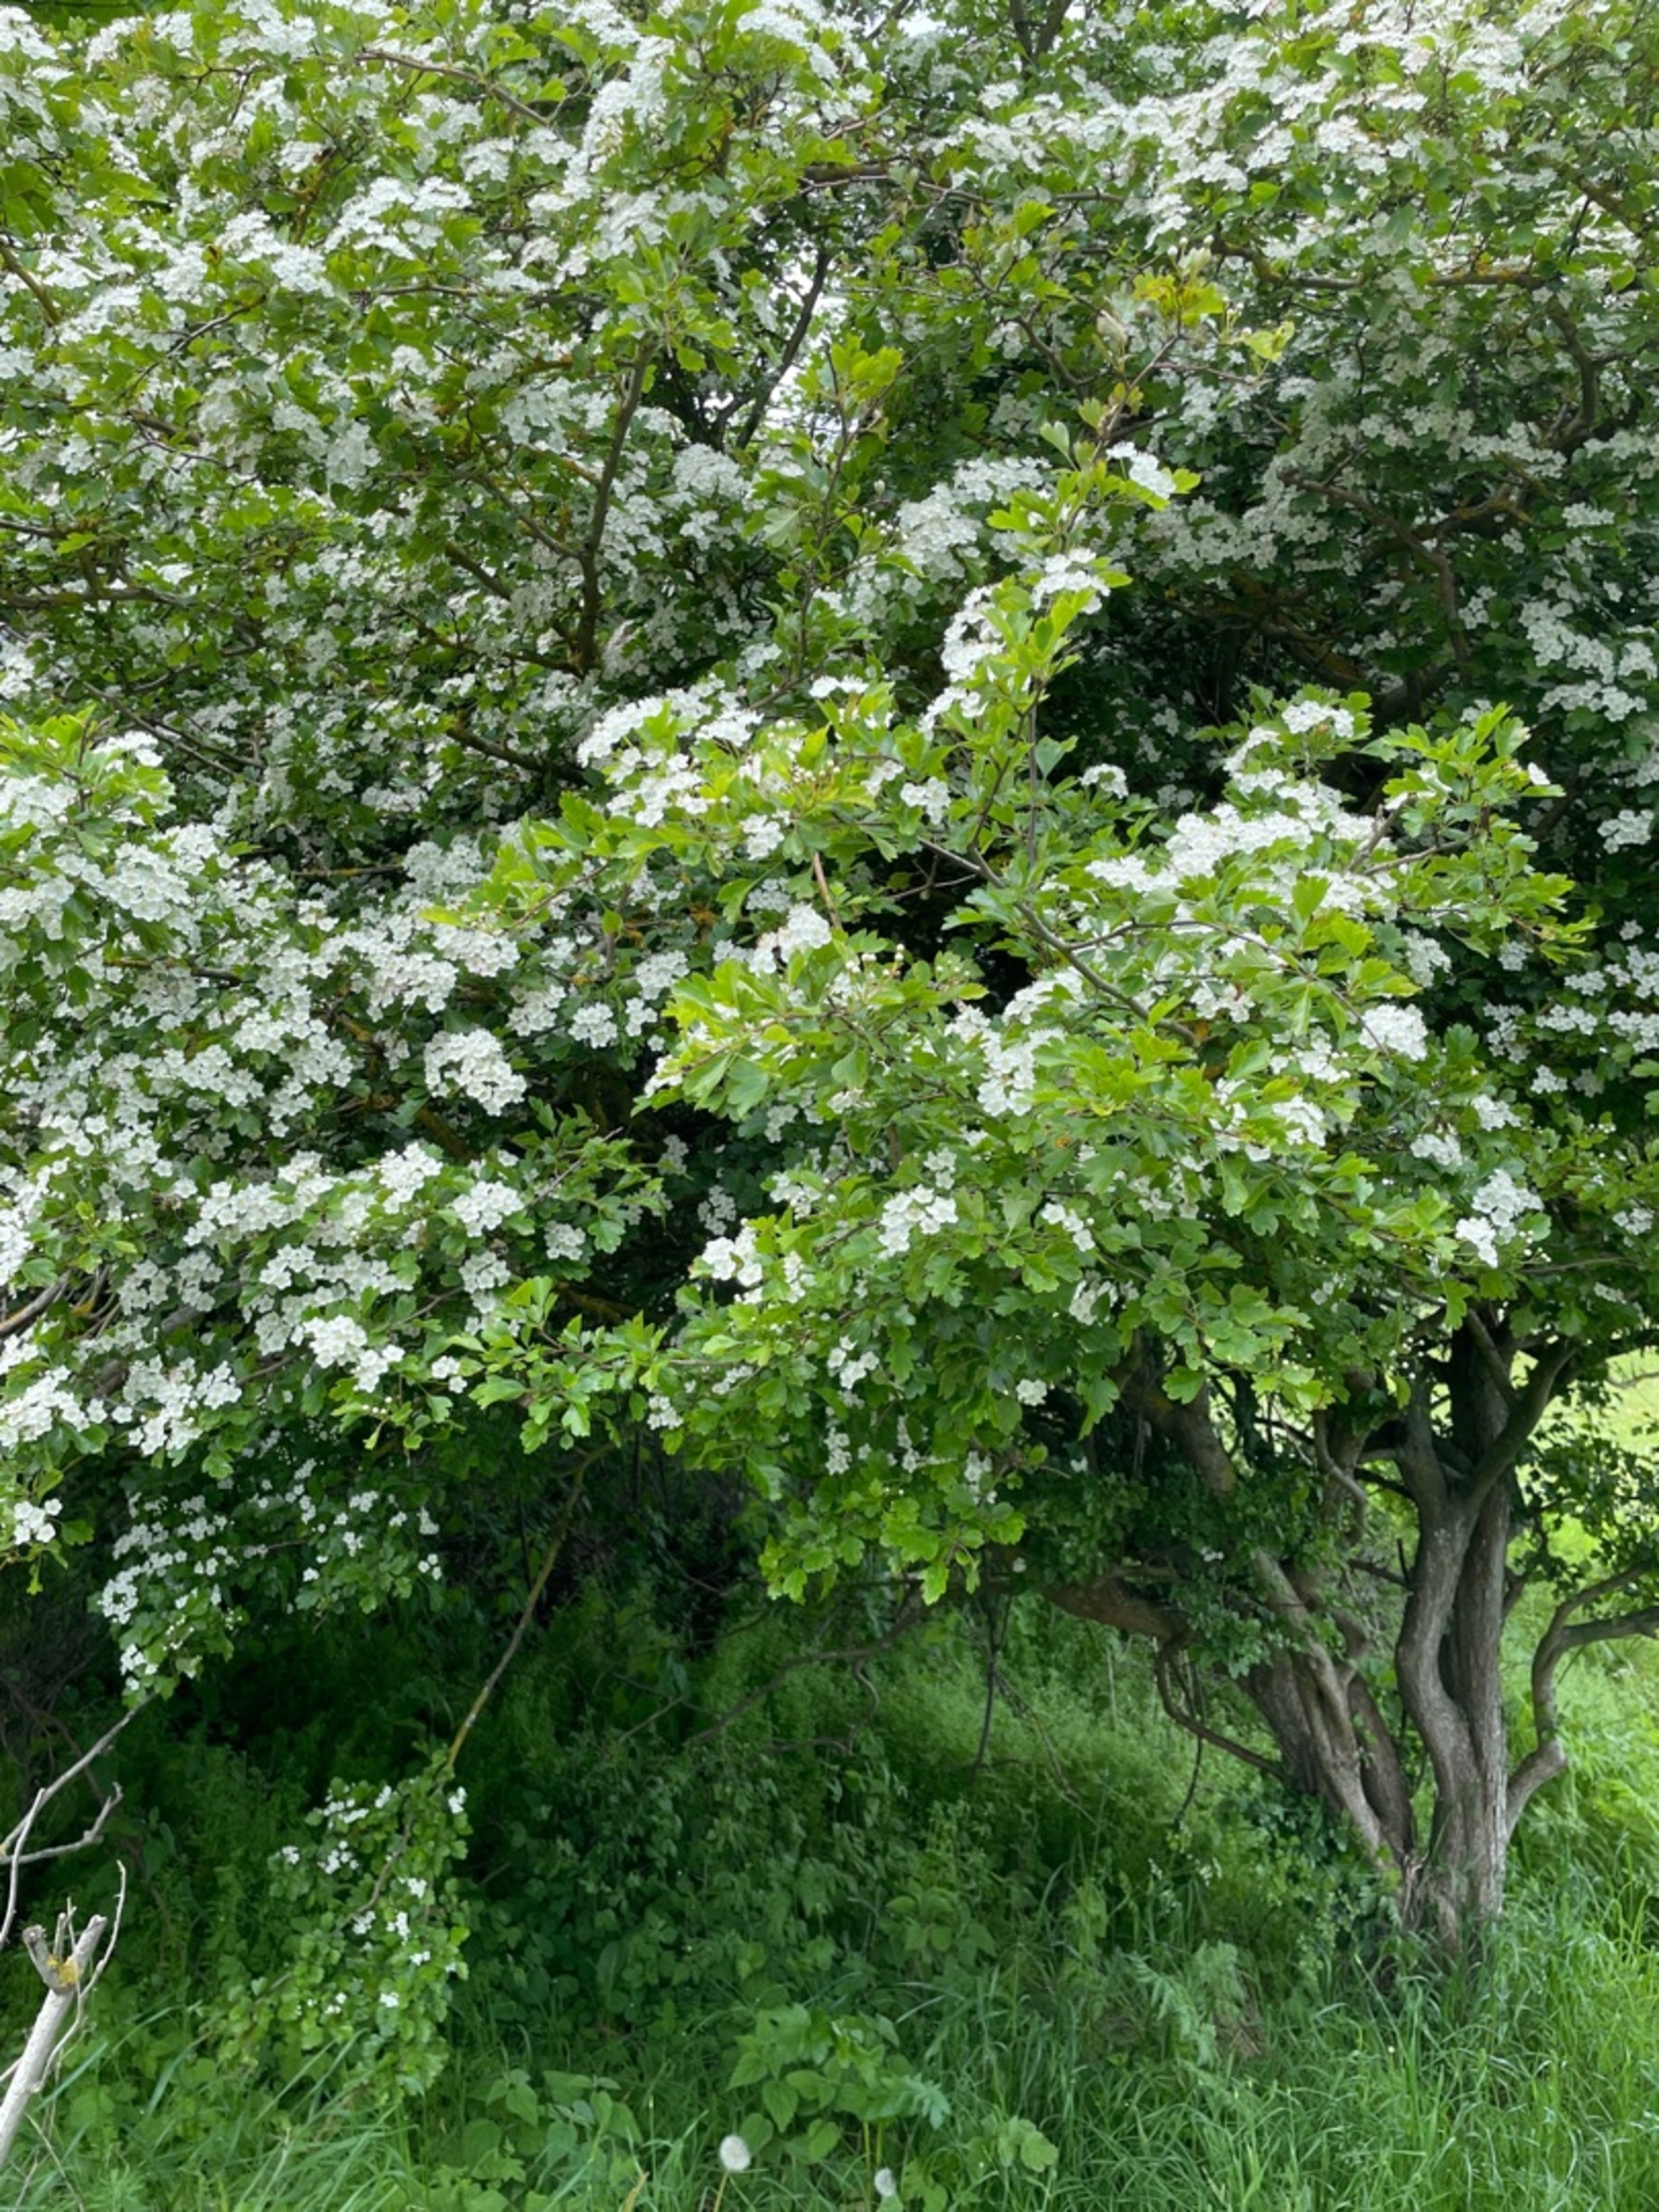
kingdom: Plantae
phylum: Tracheophyta
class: Magnoliopsida
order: Rosales
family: Rosaceae
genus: Crataegus
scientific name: Crataegus
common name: Hvidtjørnslægten
